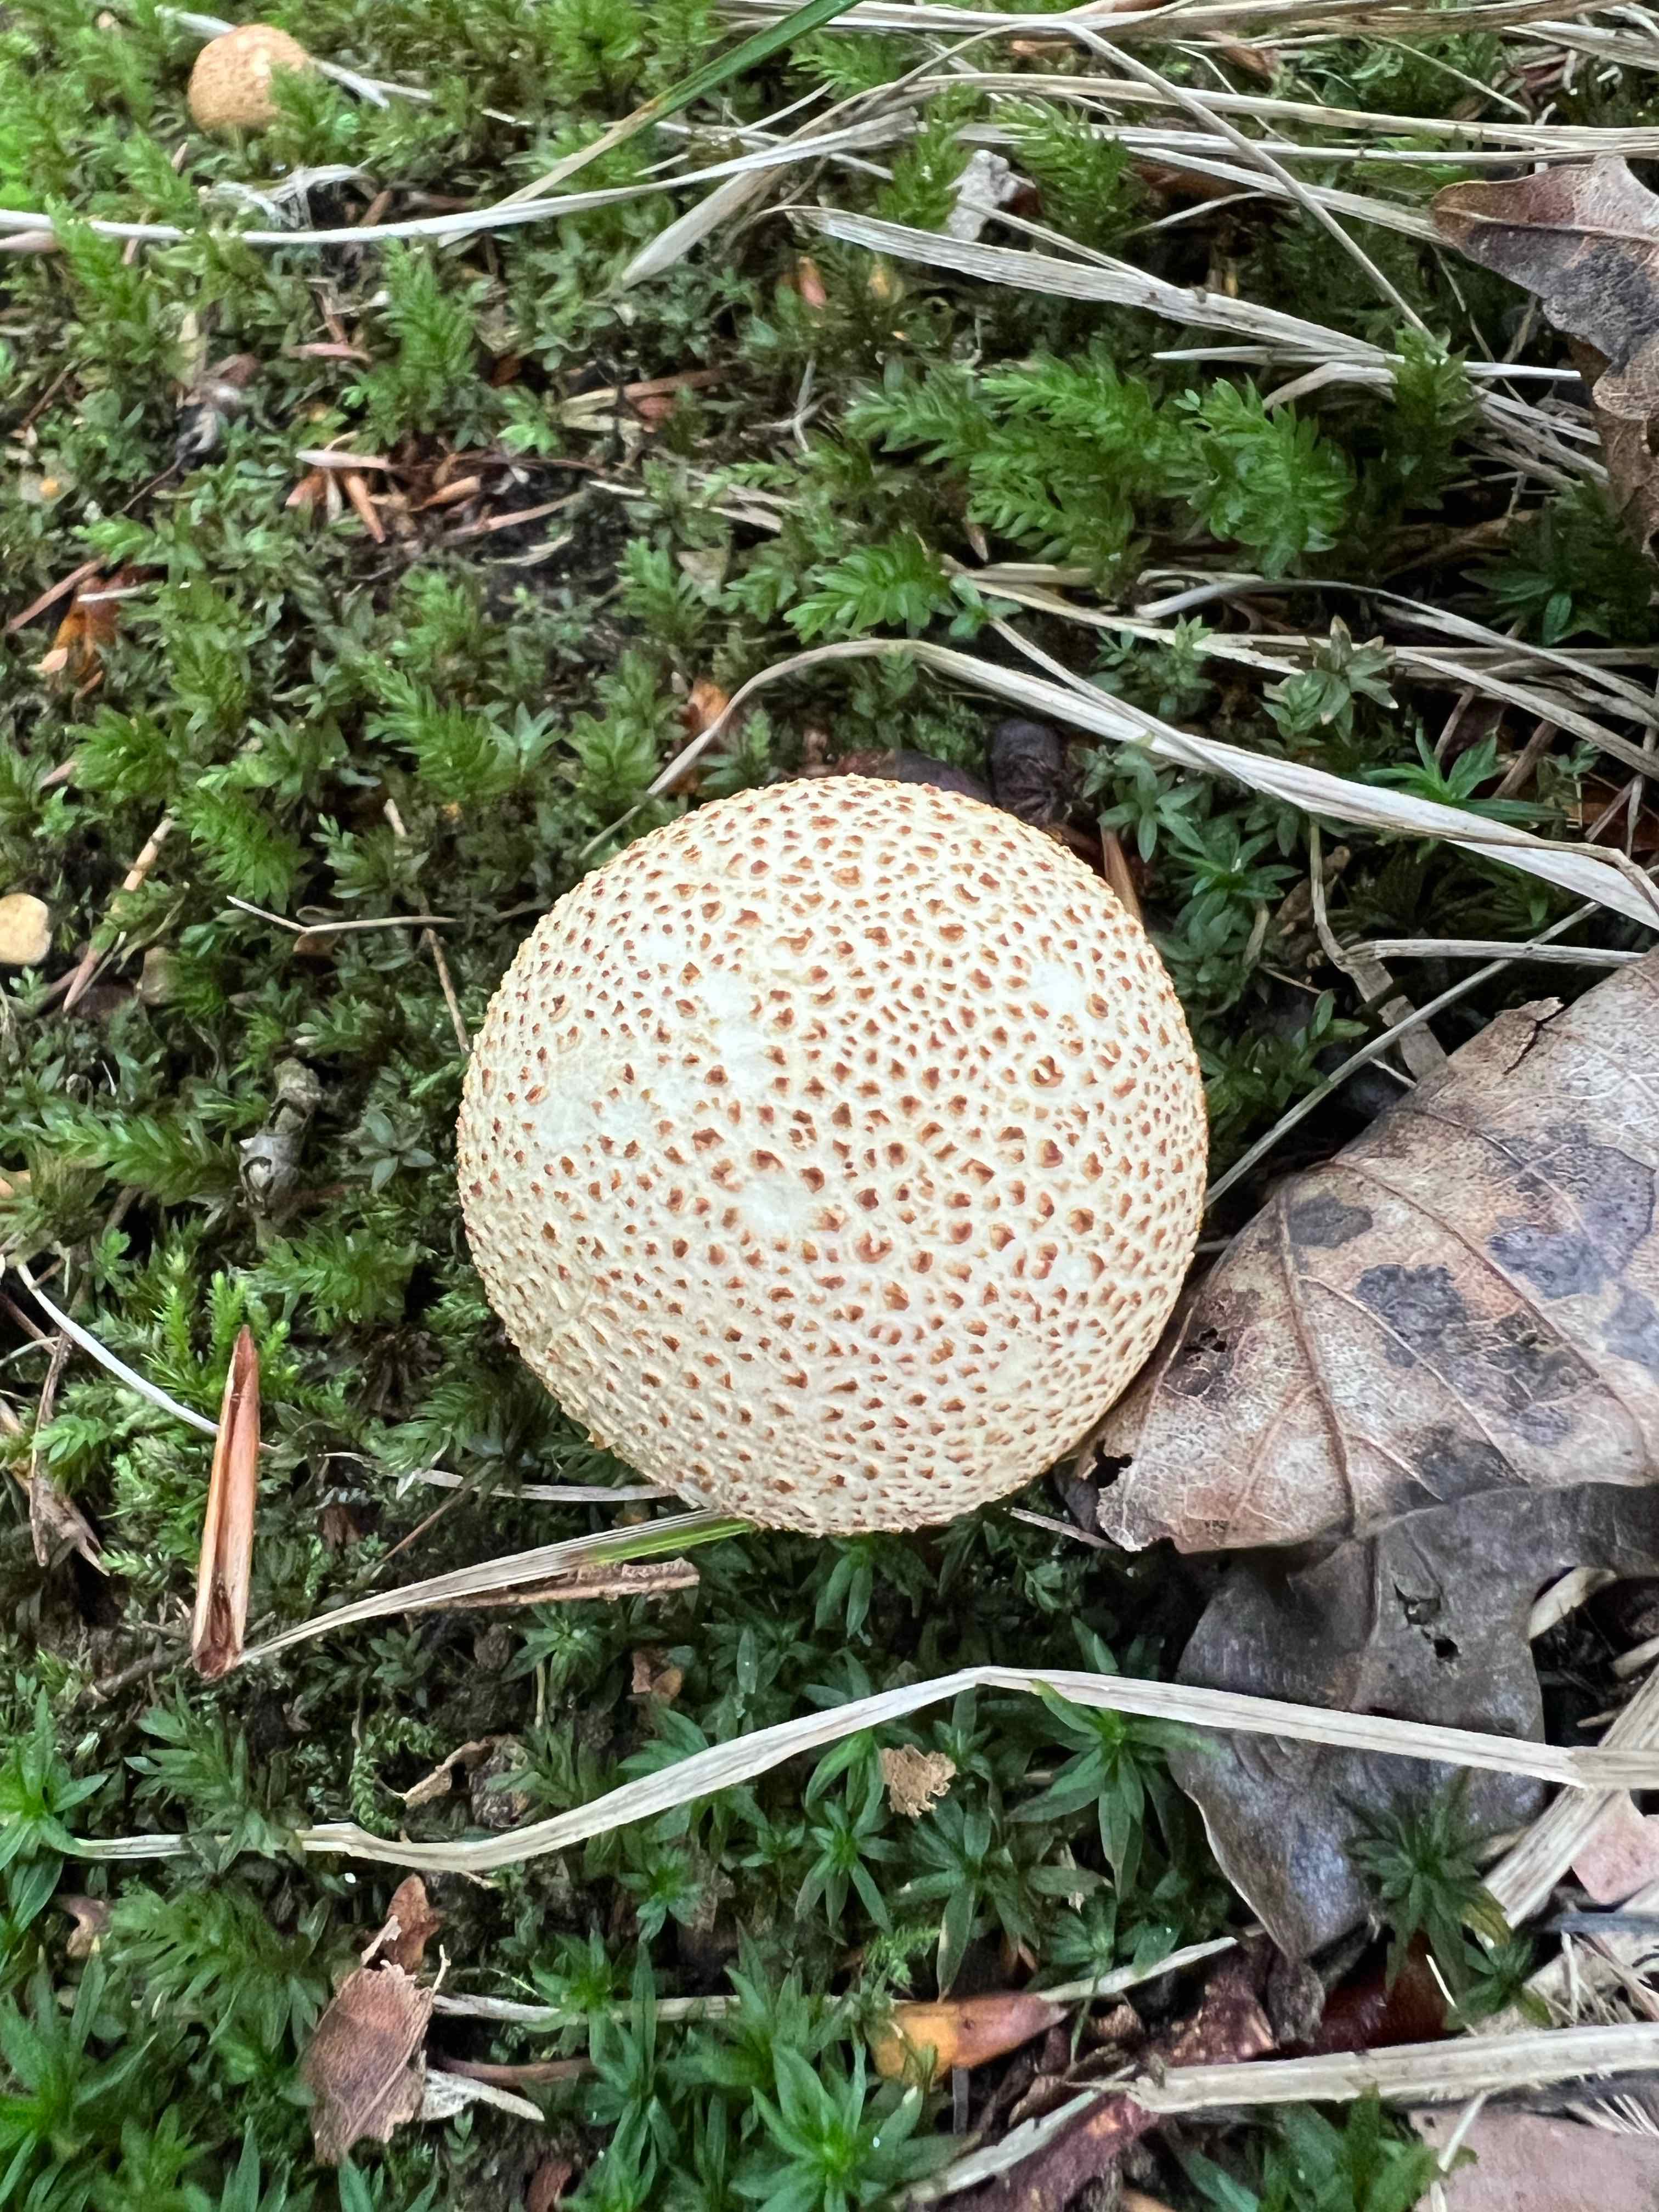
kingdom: Fungi
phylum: Basidiomycota
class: Agaricomycetes
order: Boletales
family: Sclerodermataceae
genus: Scleroderma
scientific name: Scleroderma citrinum
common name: almindelig bruskbold
